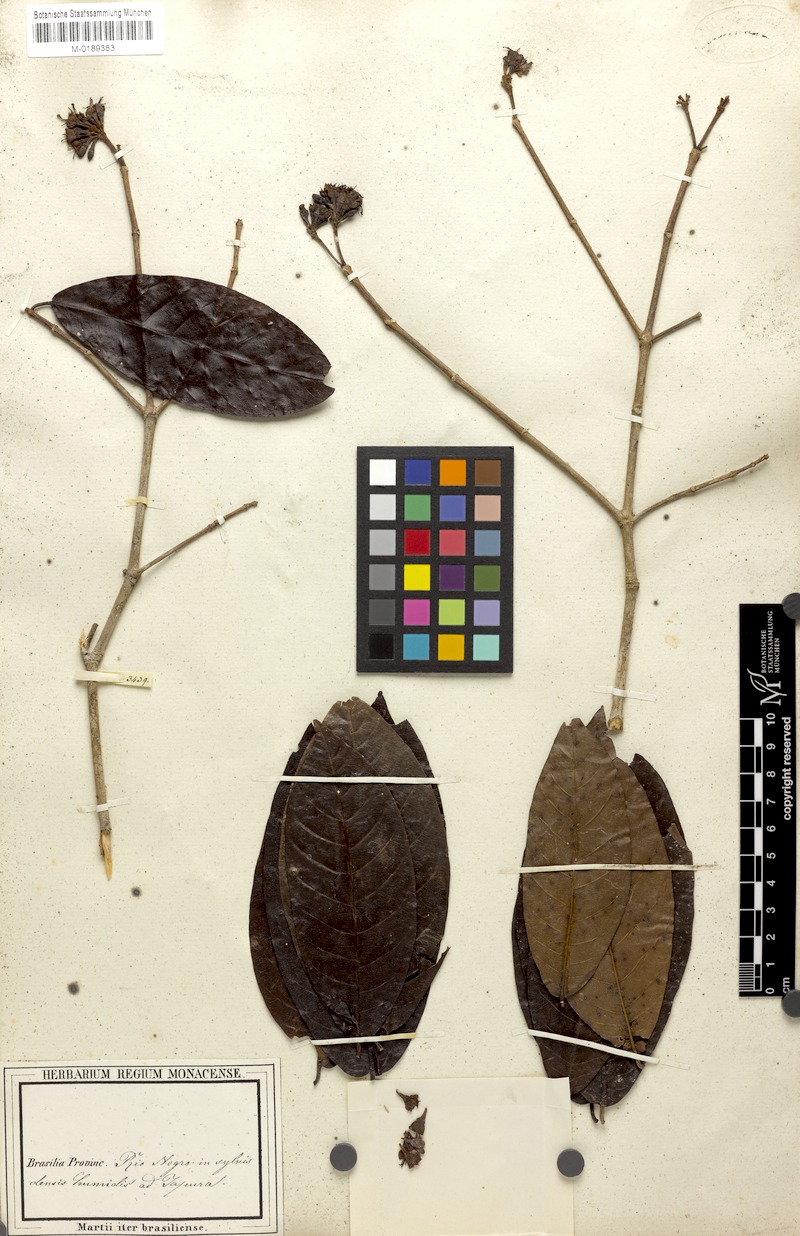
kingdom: Plantae
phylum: Tracheophyta
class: Magnoliopsida
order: Gentianales
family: Rubiaceae
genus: Simira
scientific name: Simira rubescens
